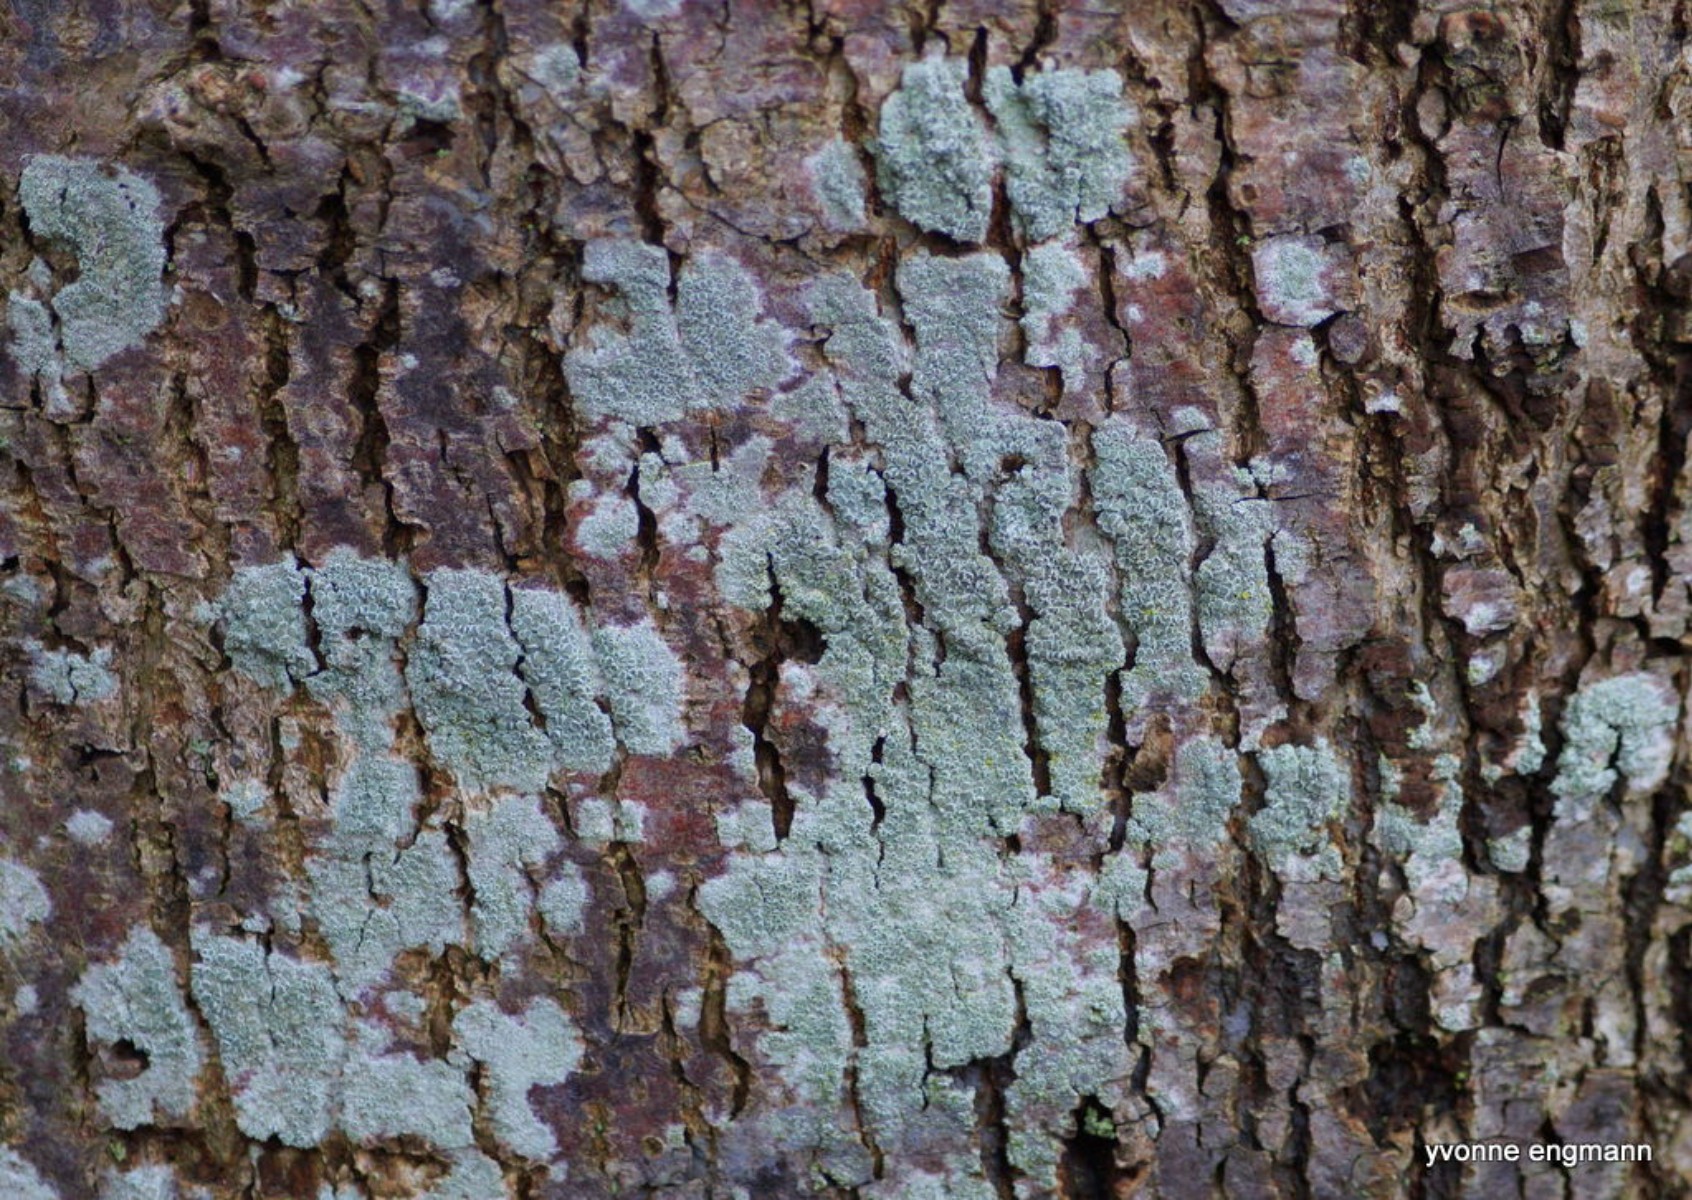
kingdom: Fungi
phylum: Ascomycota
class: Lecanoromycetes
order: Lecanorales
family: Lecanoraceae
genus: Lecanora
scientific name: Lecanora chlarotera
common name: brun kantskivelav
